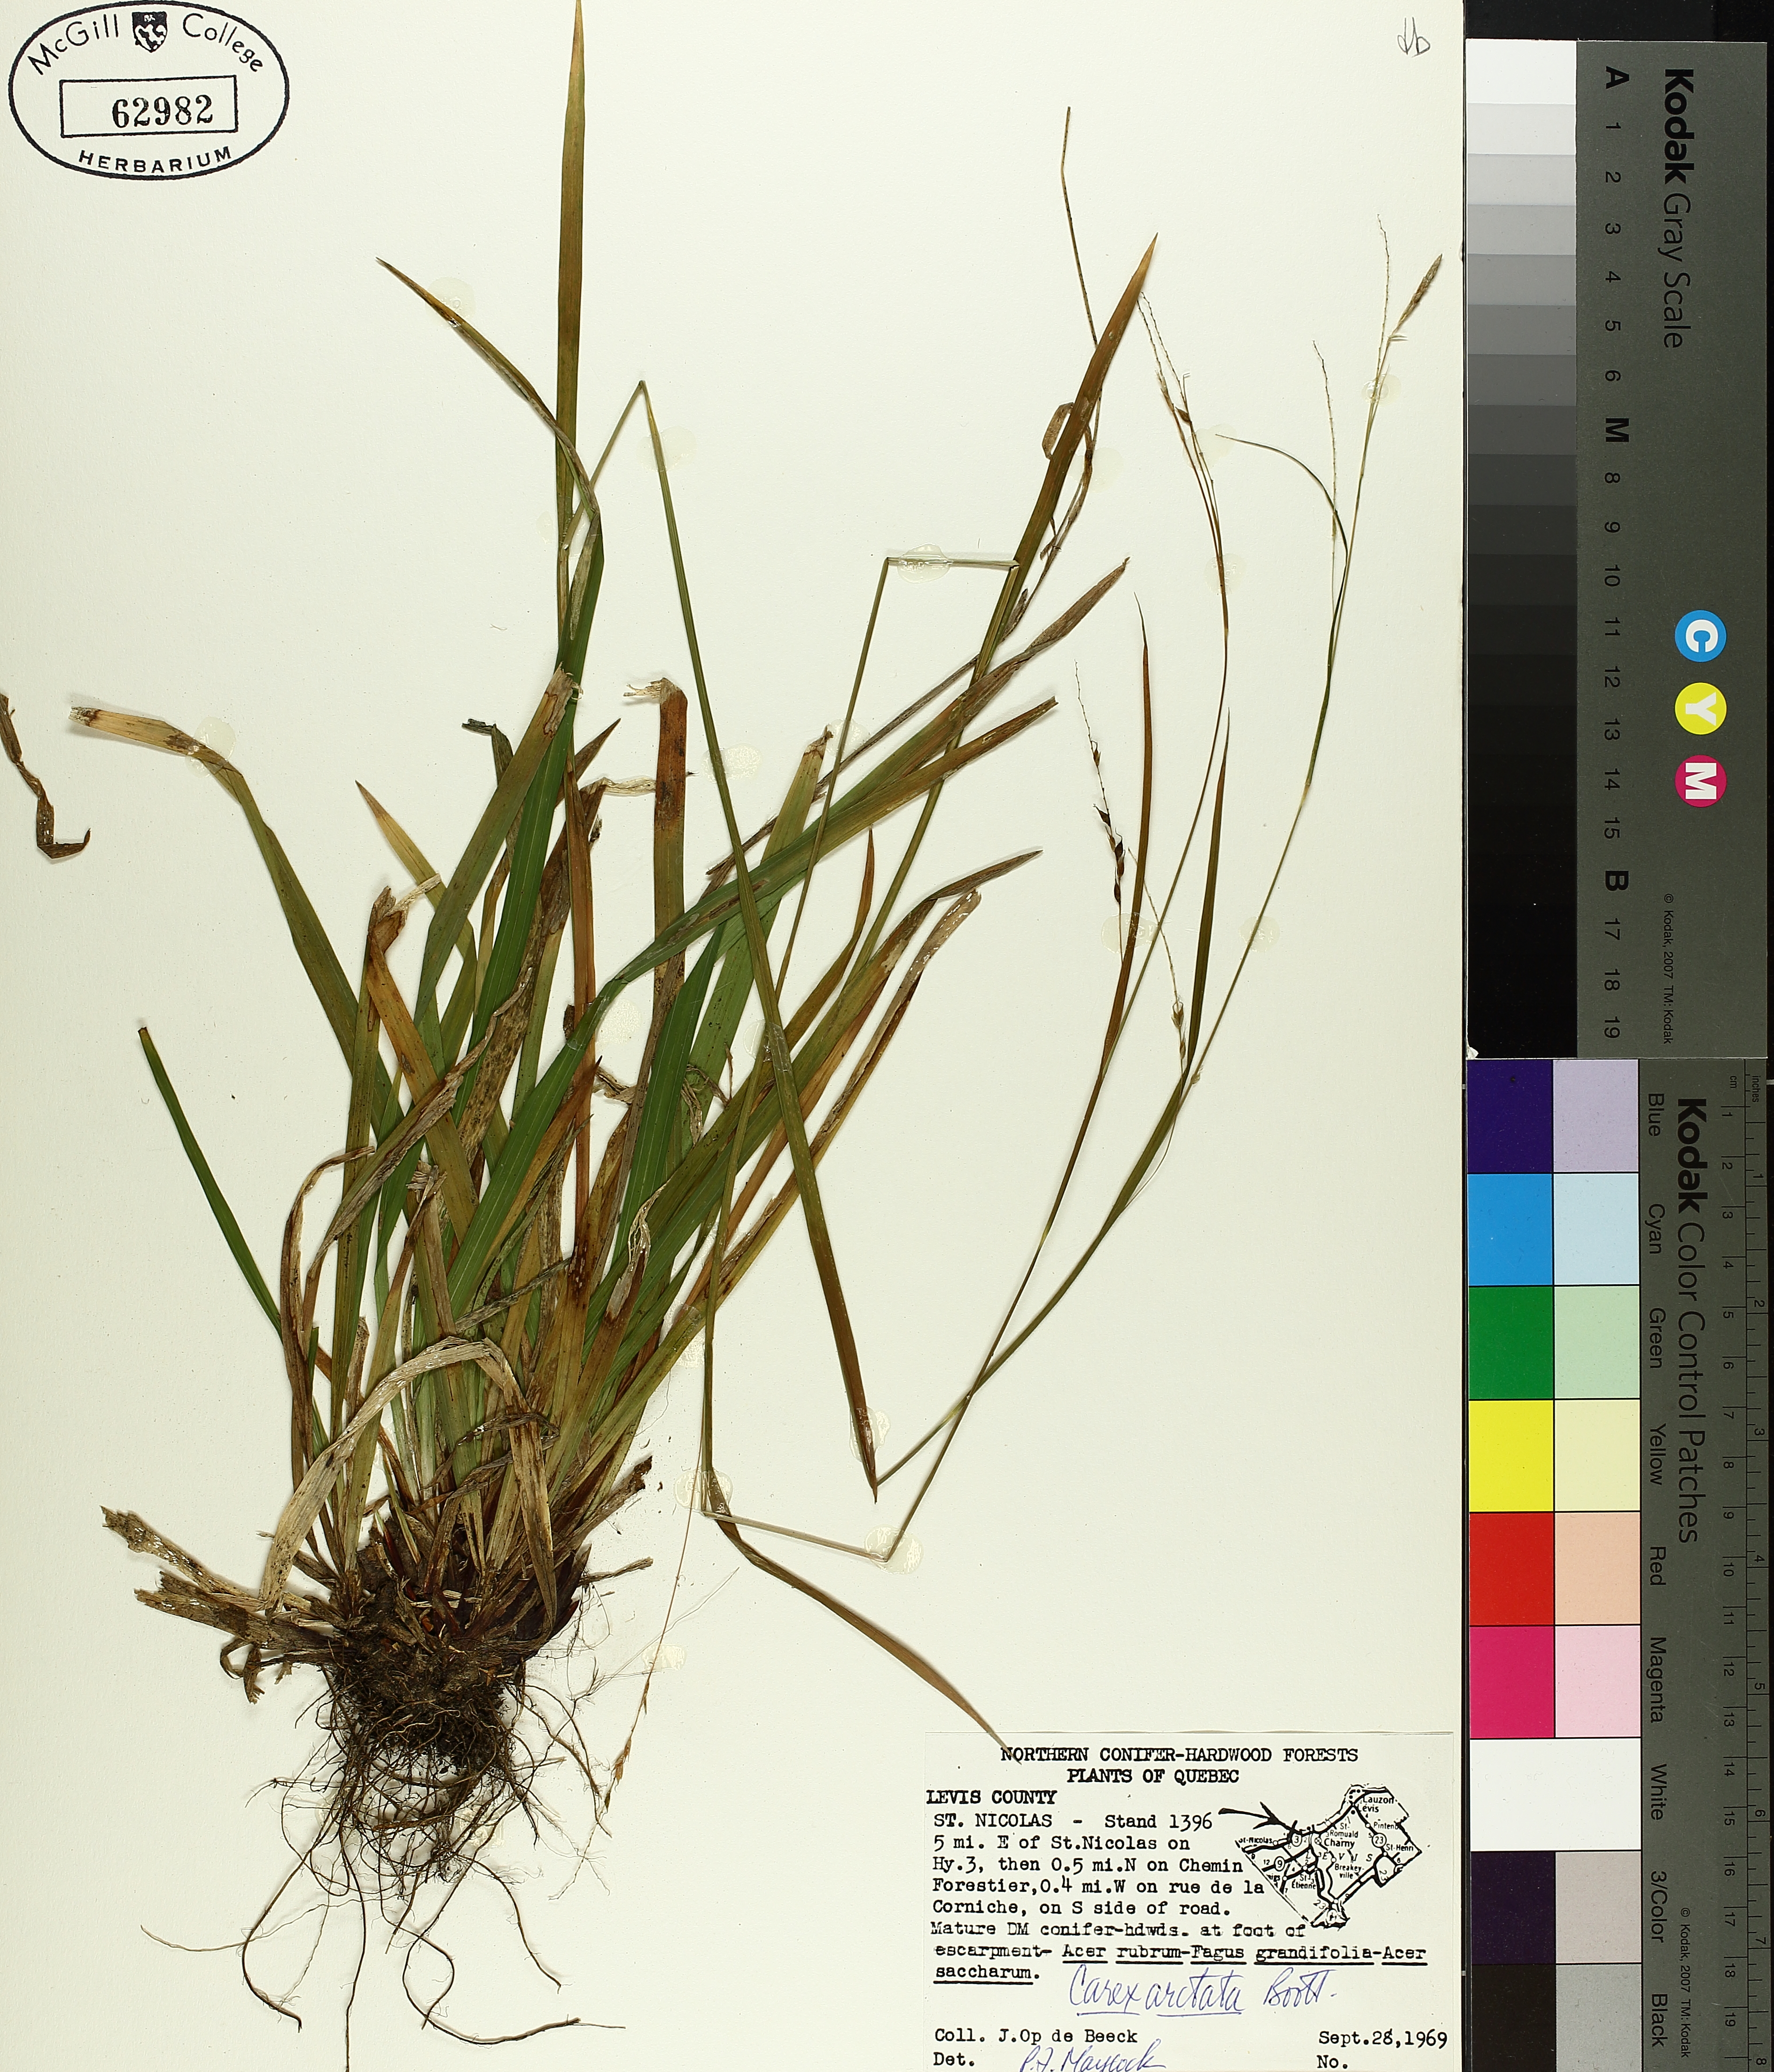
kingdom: Plantae
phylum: Tracheophyta
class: Liliopsida
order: Poales
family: Cyperaceae
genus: Carex
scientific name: Carex arctata
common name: Black sedge
